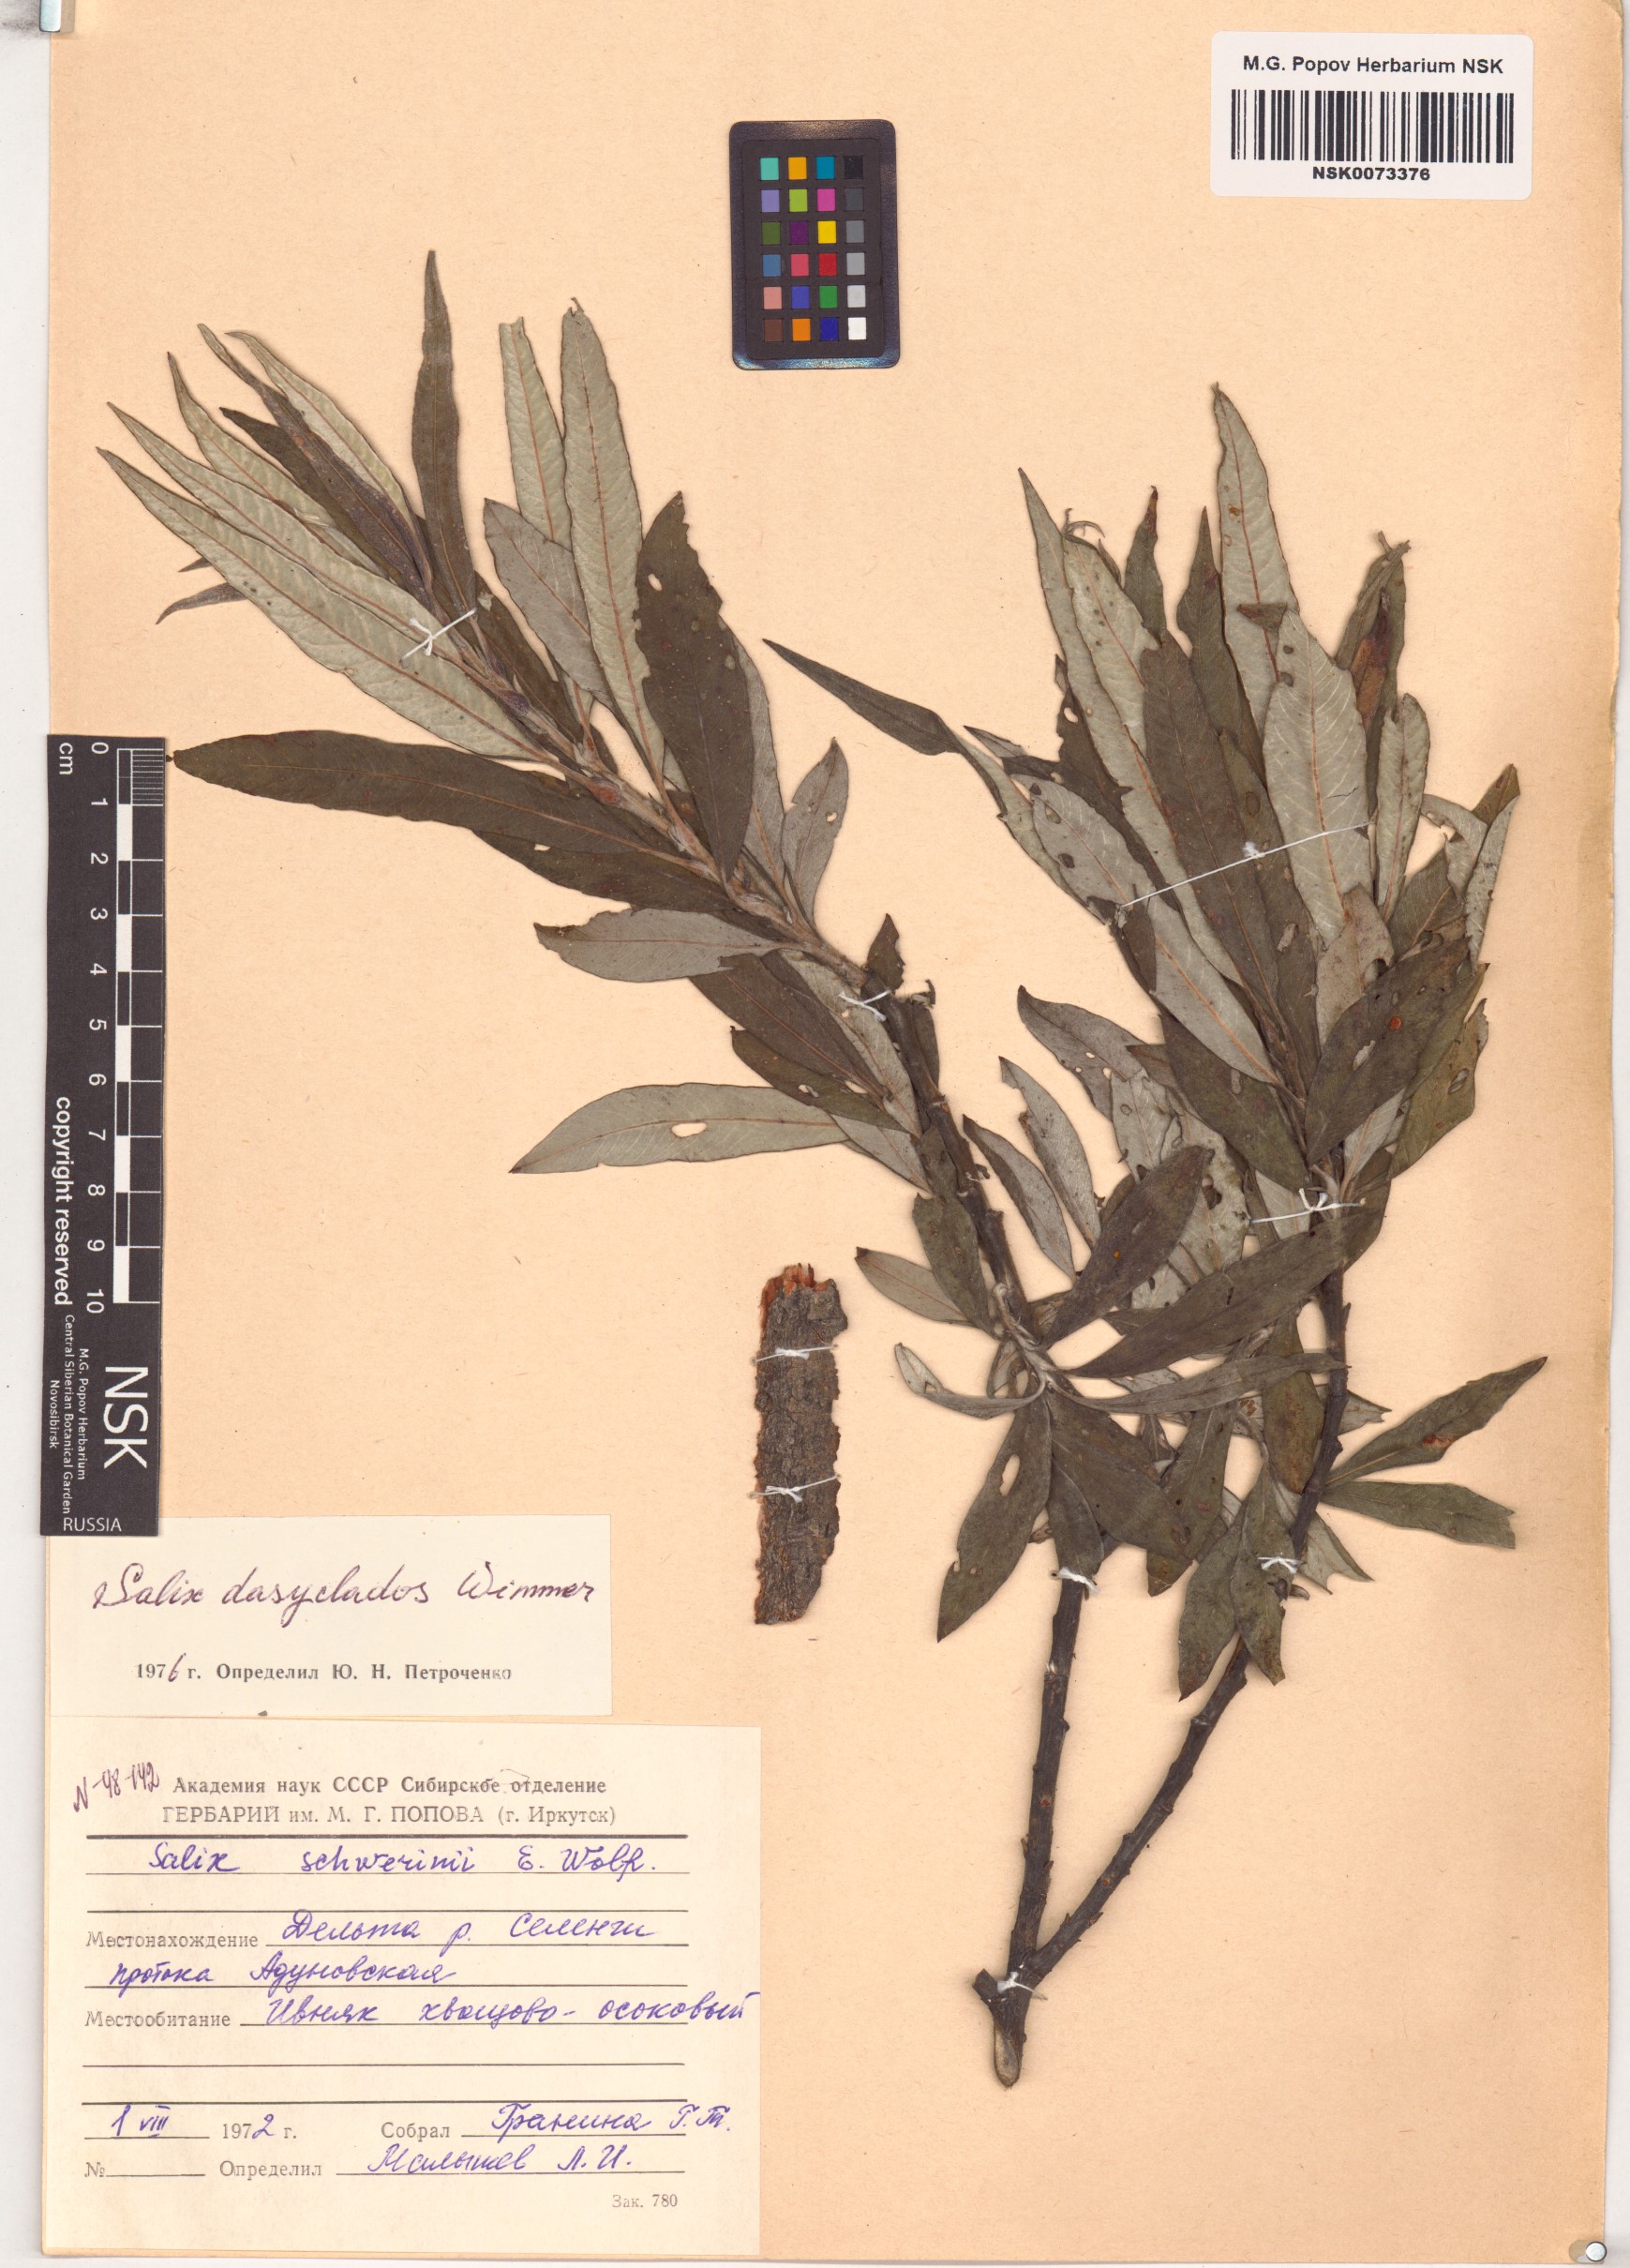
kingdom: Plantae
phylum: Tracheophyta
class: Magnoliopsida
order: Malpighiales
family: Salicaceae
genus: Salix
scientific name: Salix gmelinii
